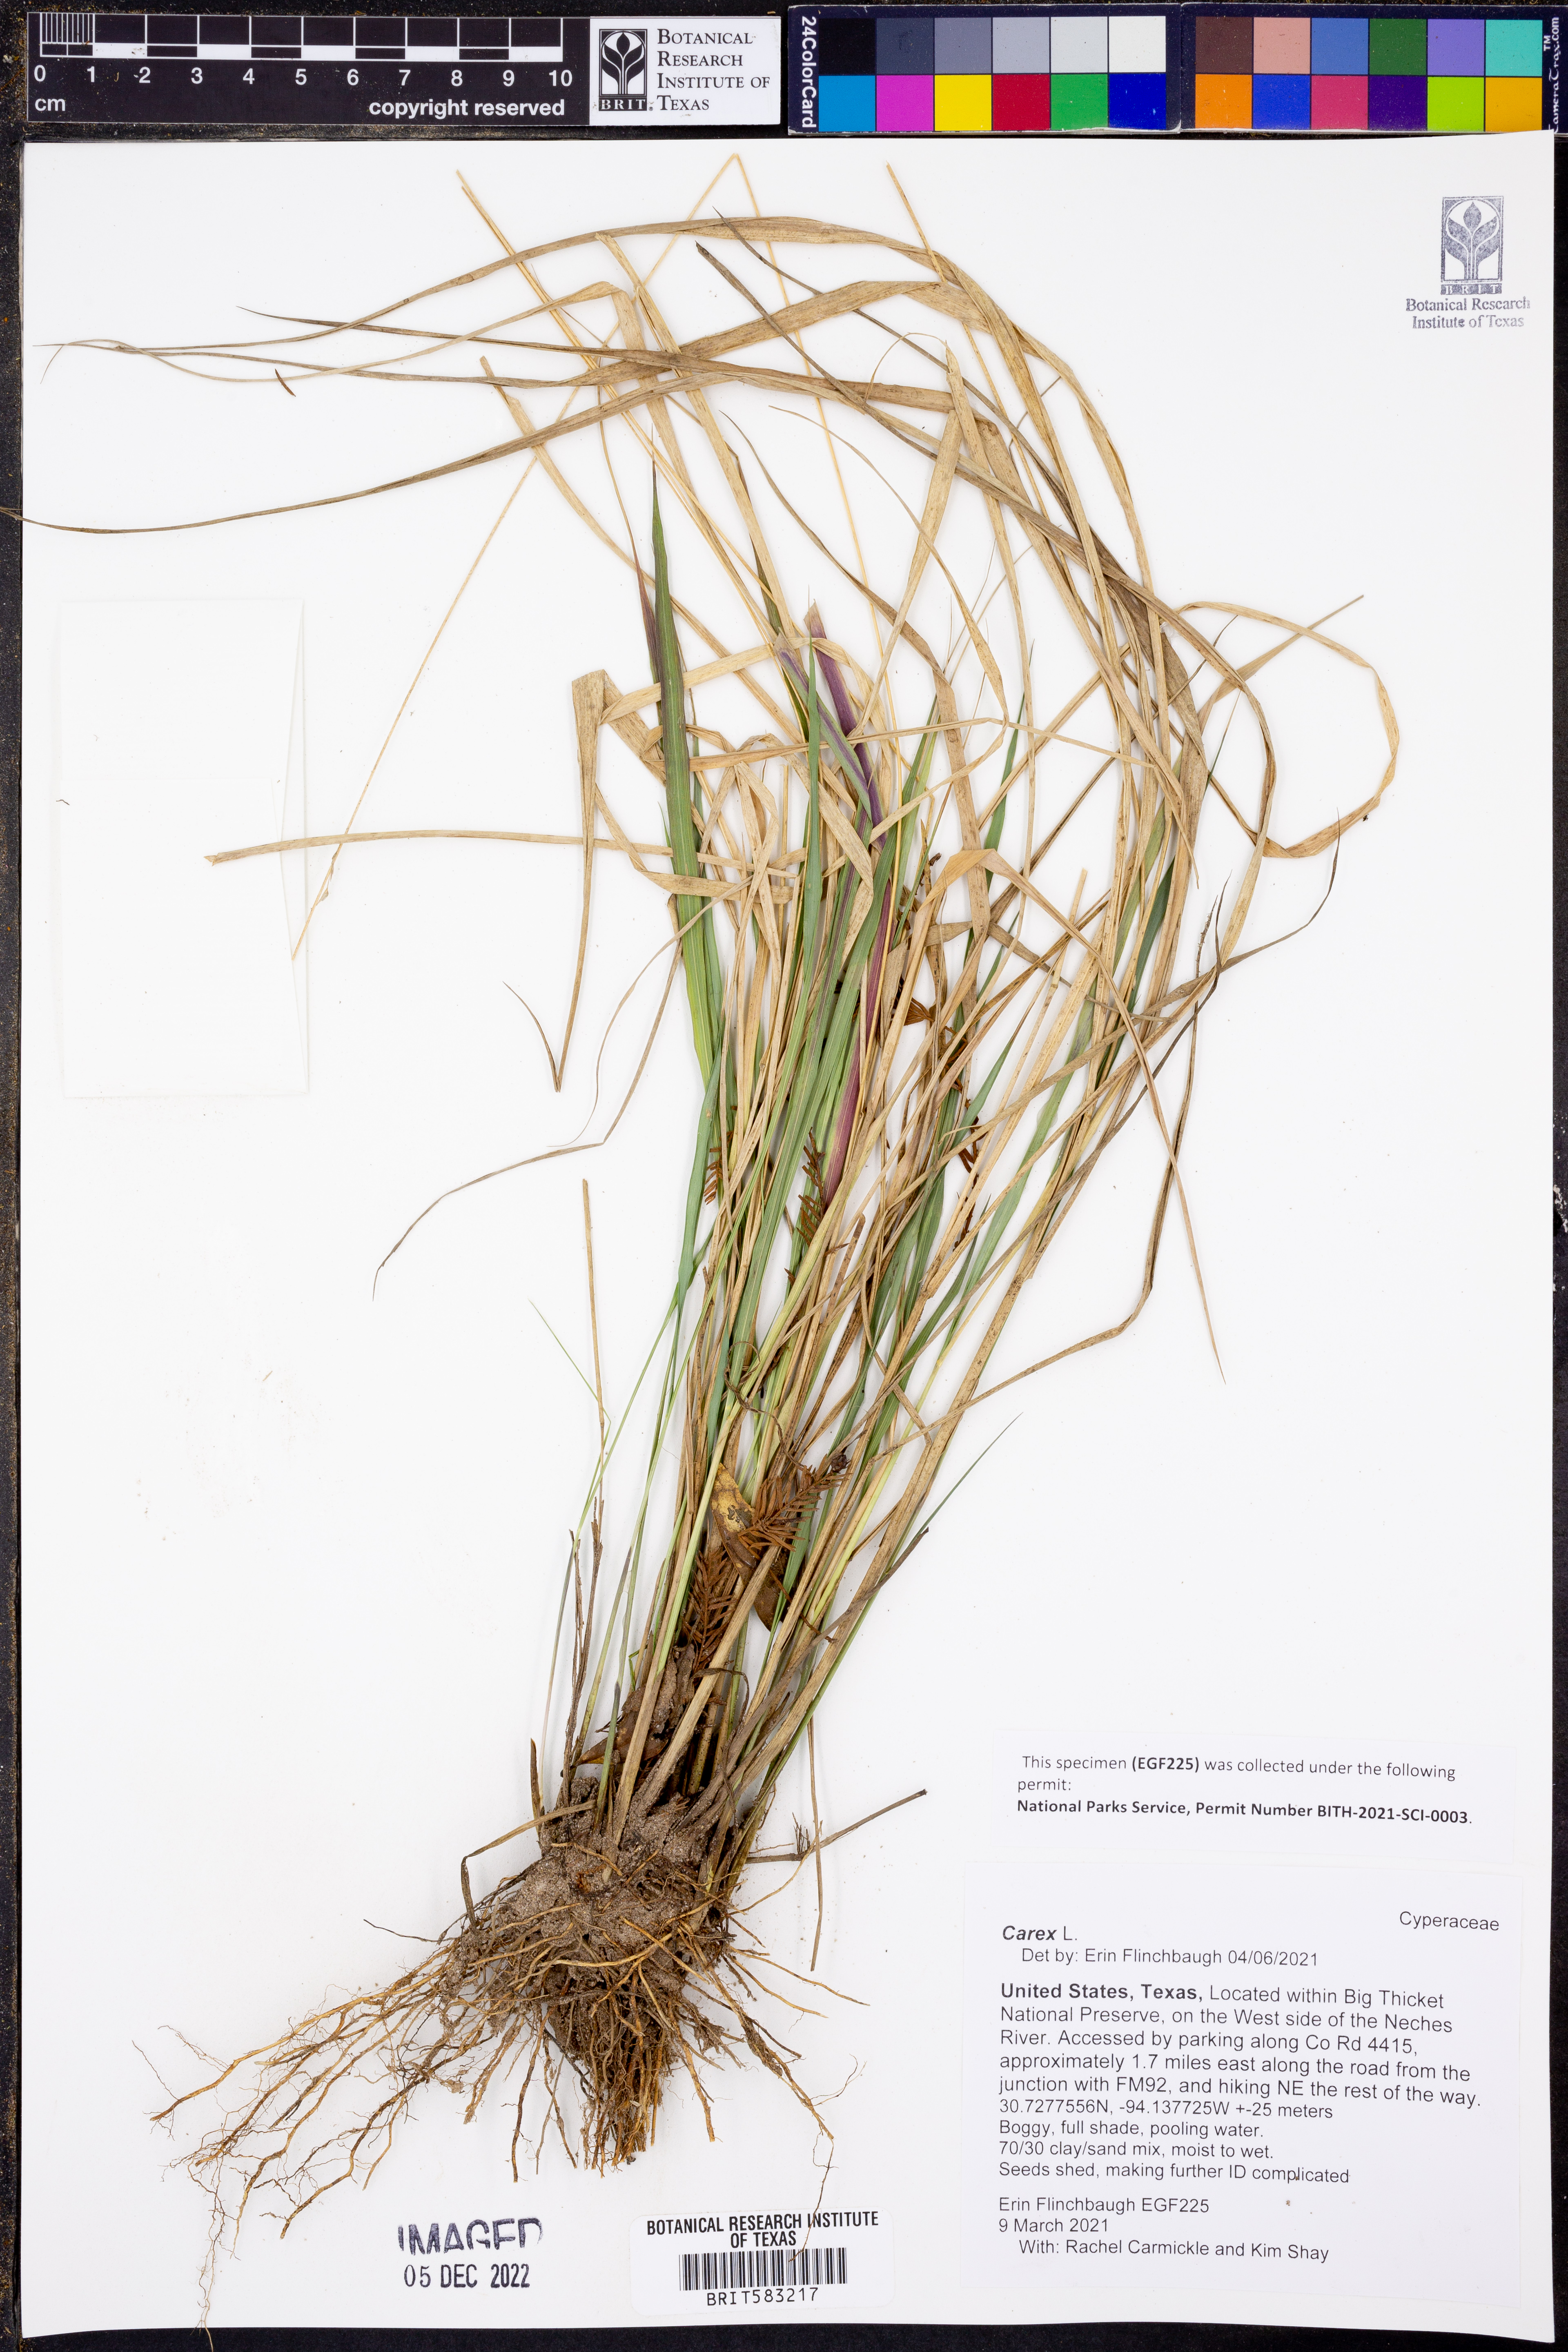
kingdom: Plantae
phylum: Tracheophyta
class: Liliopsida
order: Poales
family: Cyperaceae
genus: Carex
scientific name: Carex
